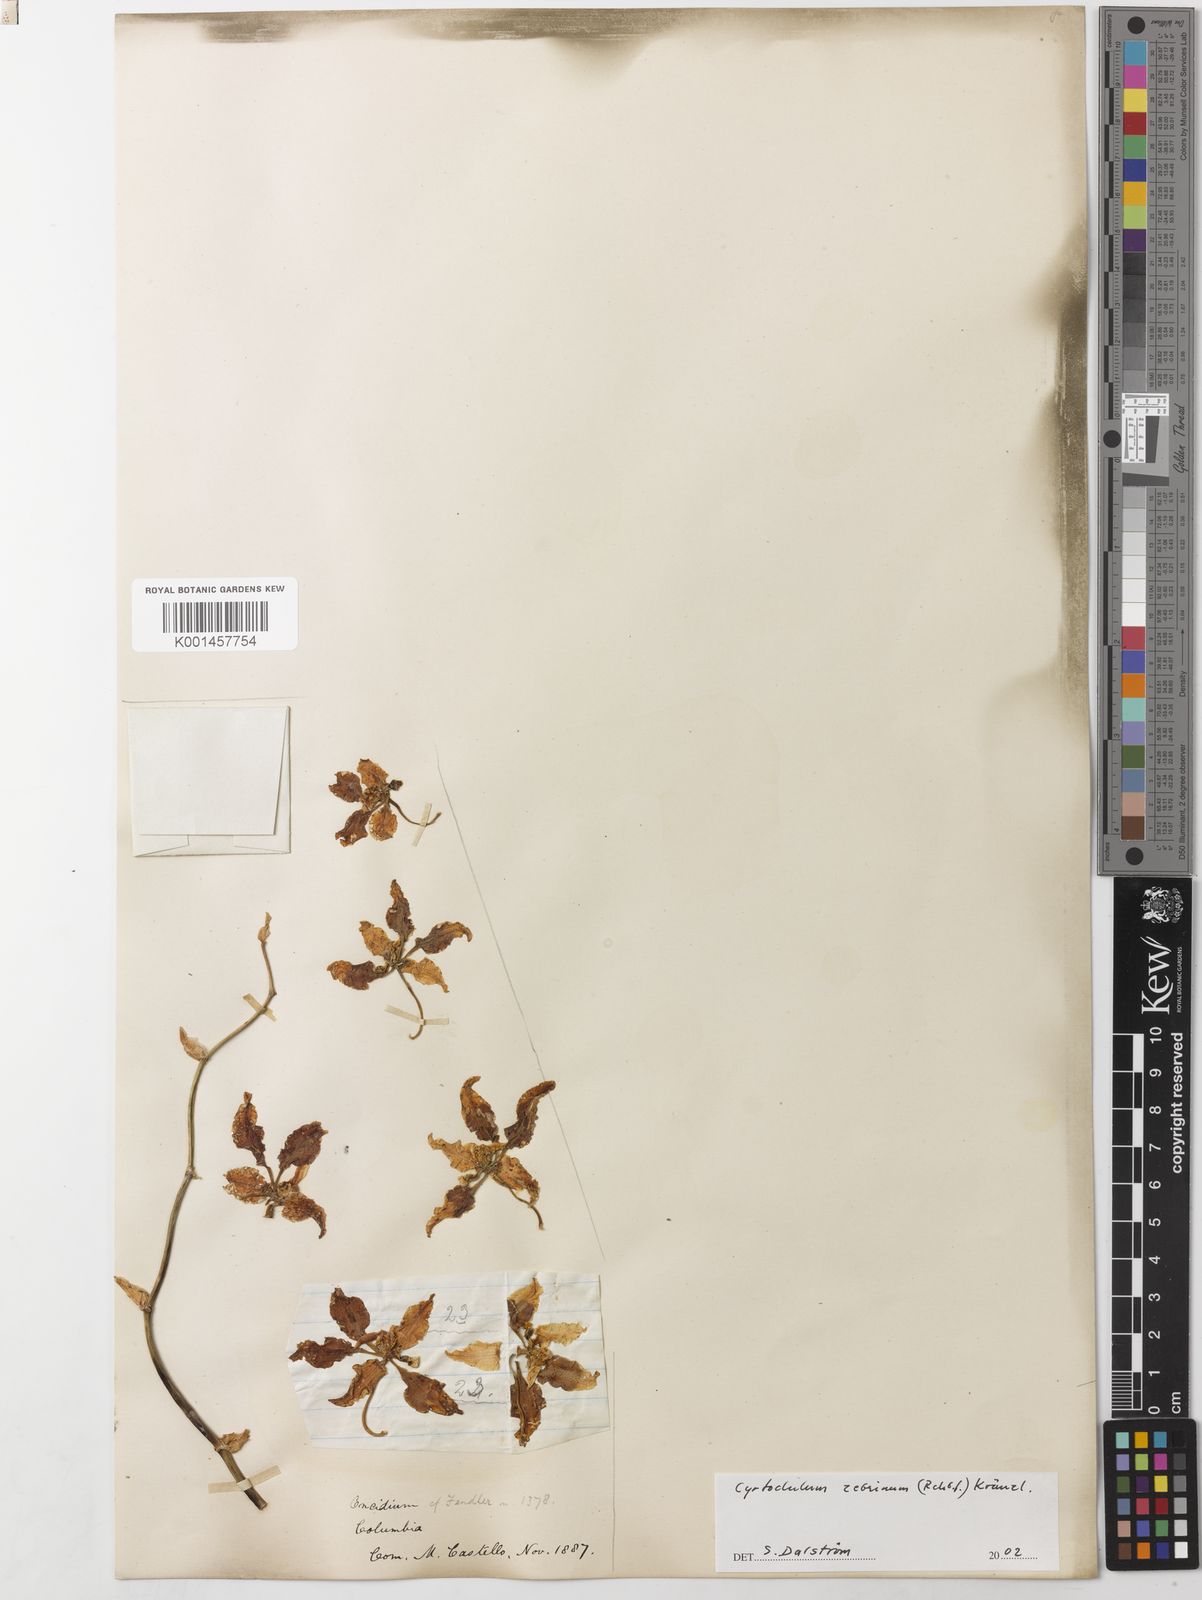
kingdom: Plantae
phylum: Tracheophyta
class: Liliopsida
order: Asparagales
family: Orchidaceae
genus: Cyrtochilum
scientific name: Cyrtochilum zebrinum
